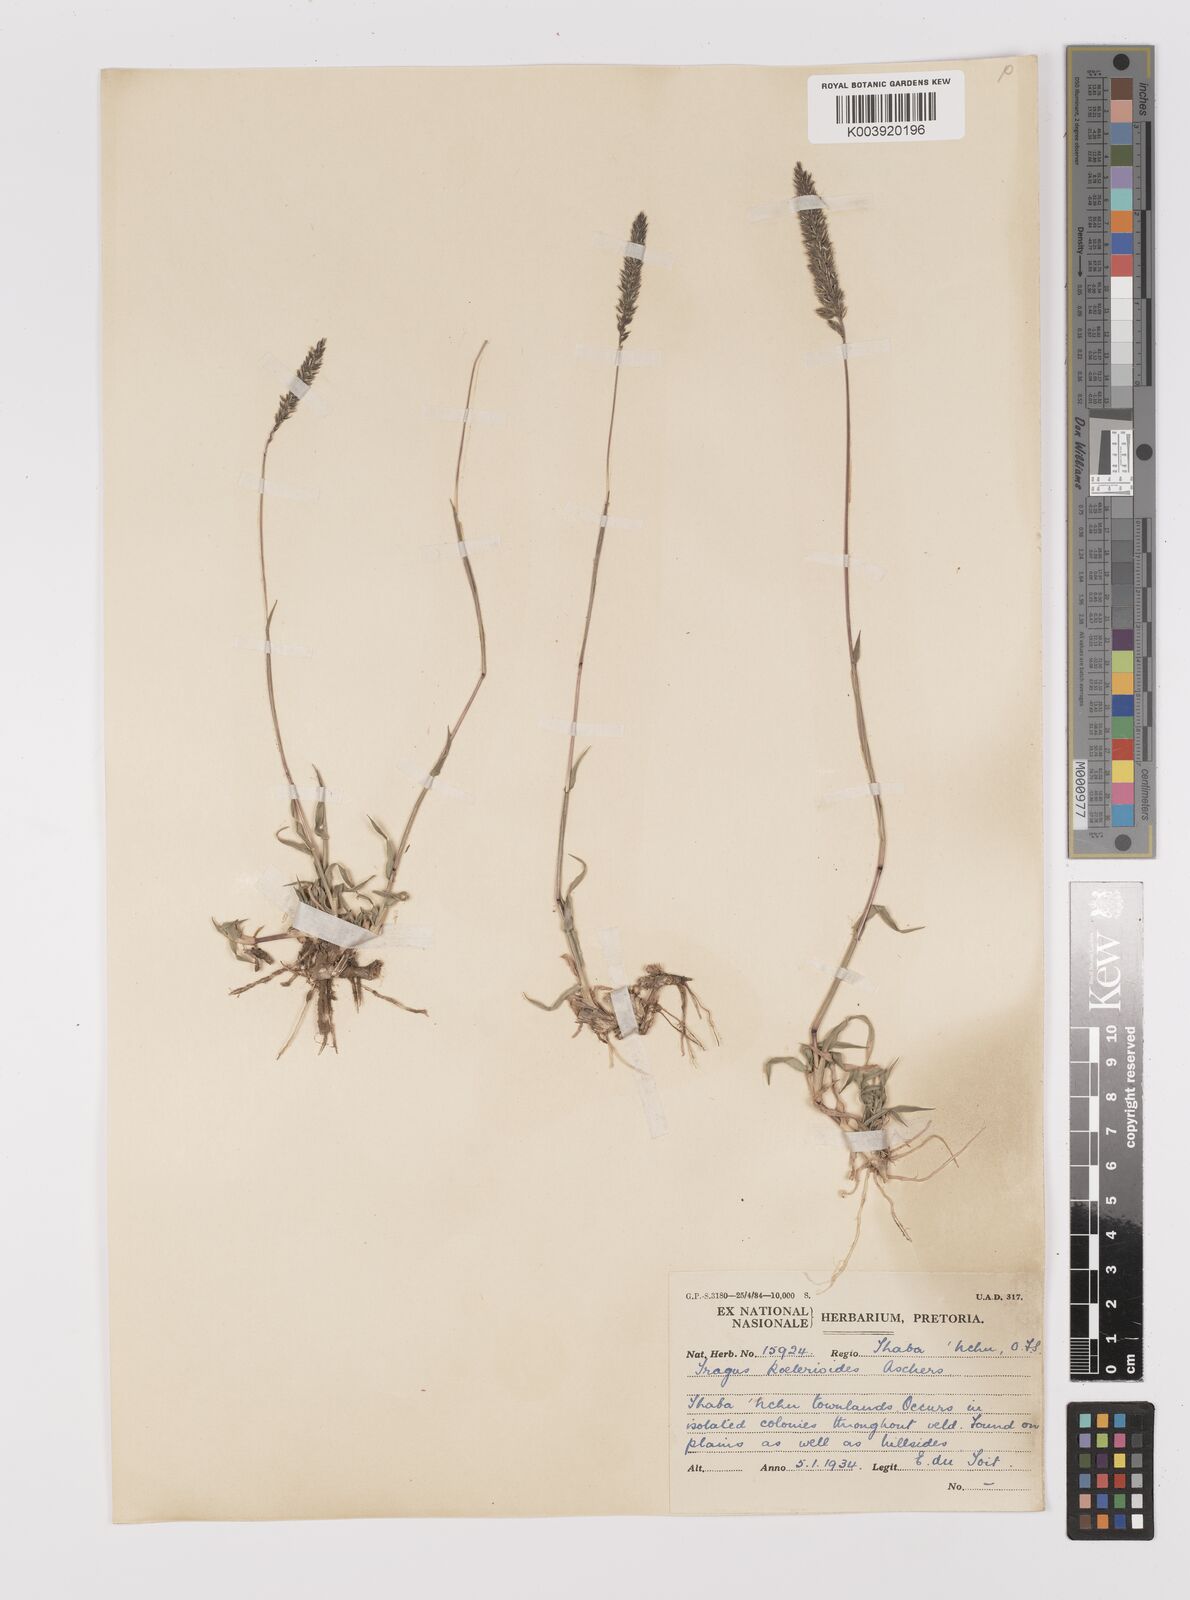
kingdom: Plantae
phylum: Tracheophyta
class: Liliopsida
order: Poales
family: Poaceae
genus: Tragus
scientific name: Tragus koelerioides
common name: Creeping carrot-seed grass
